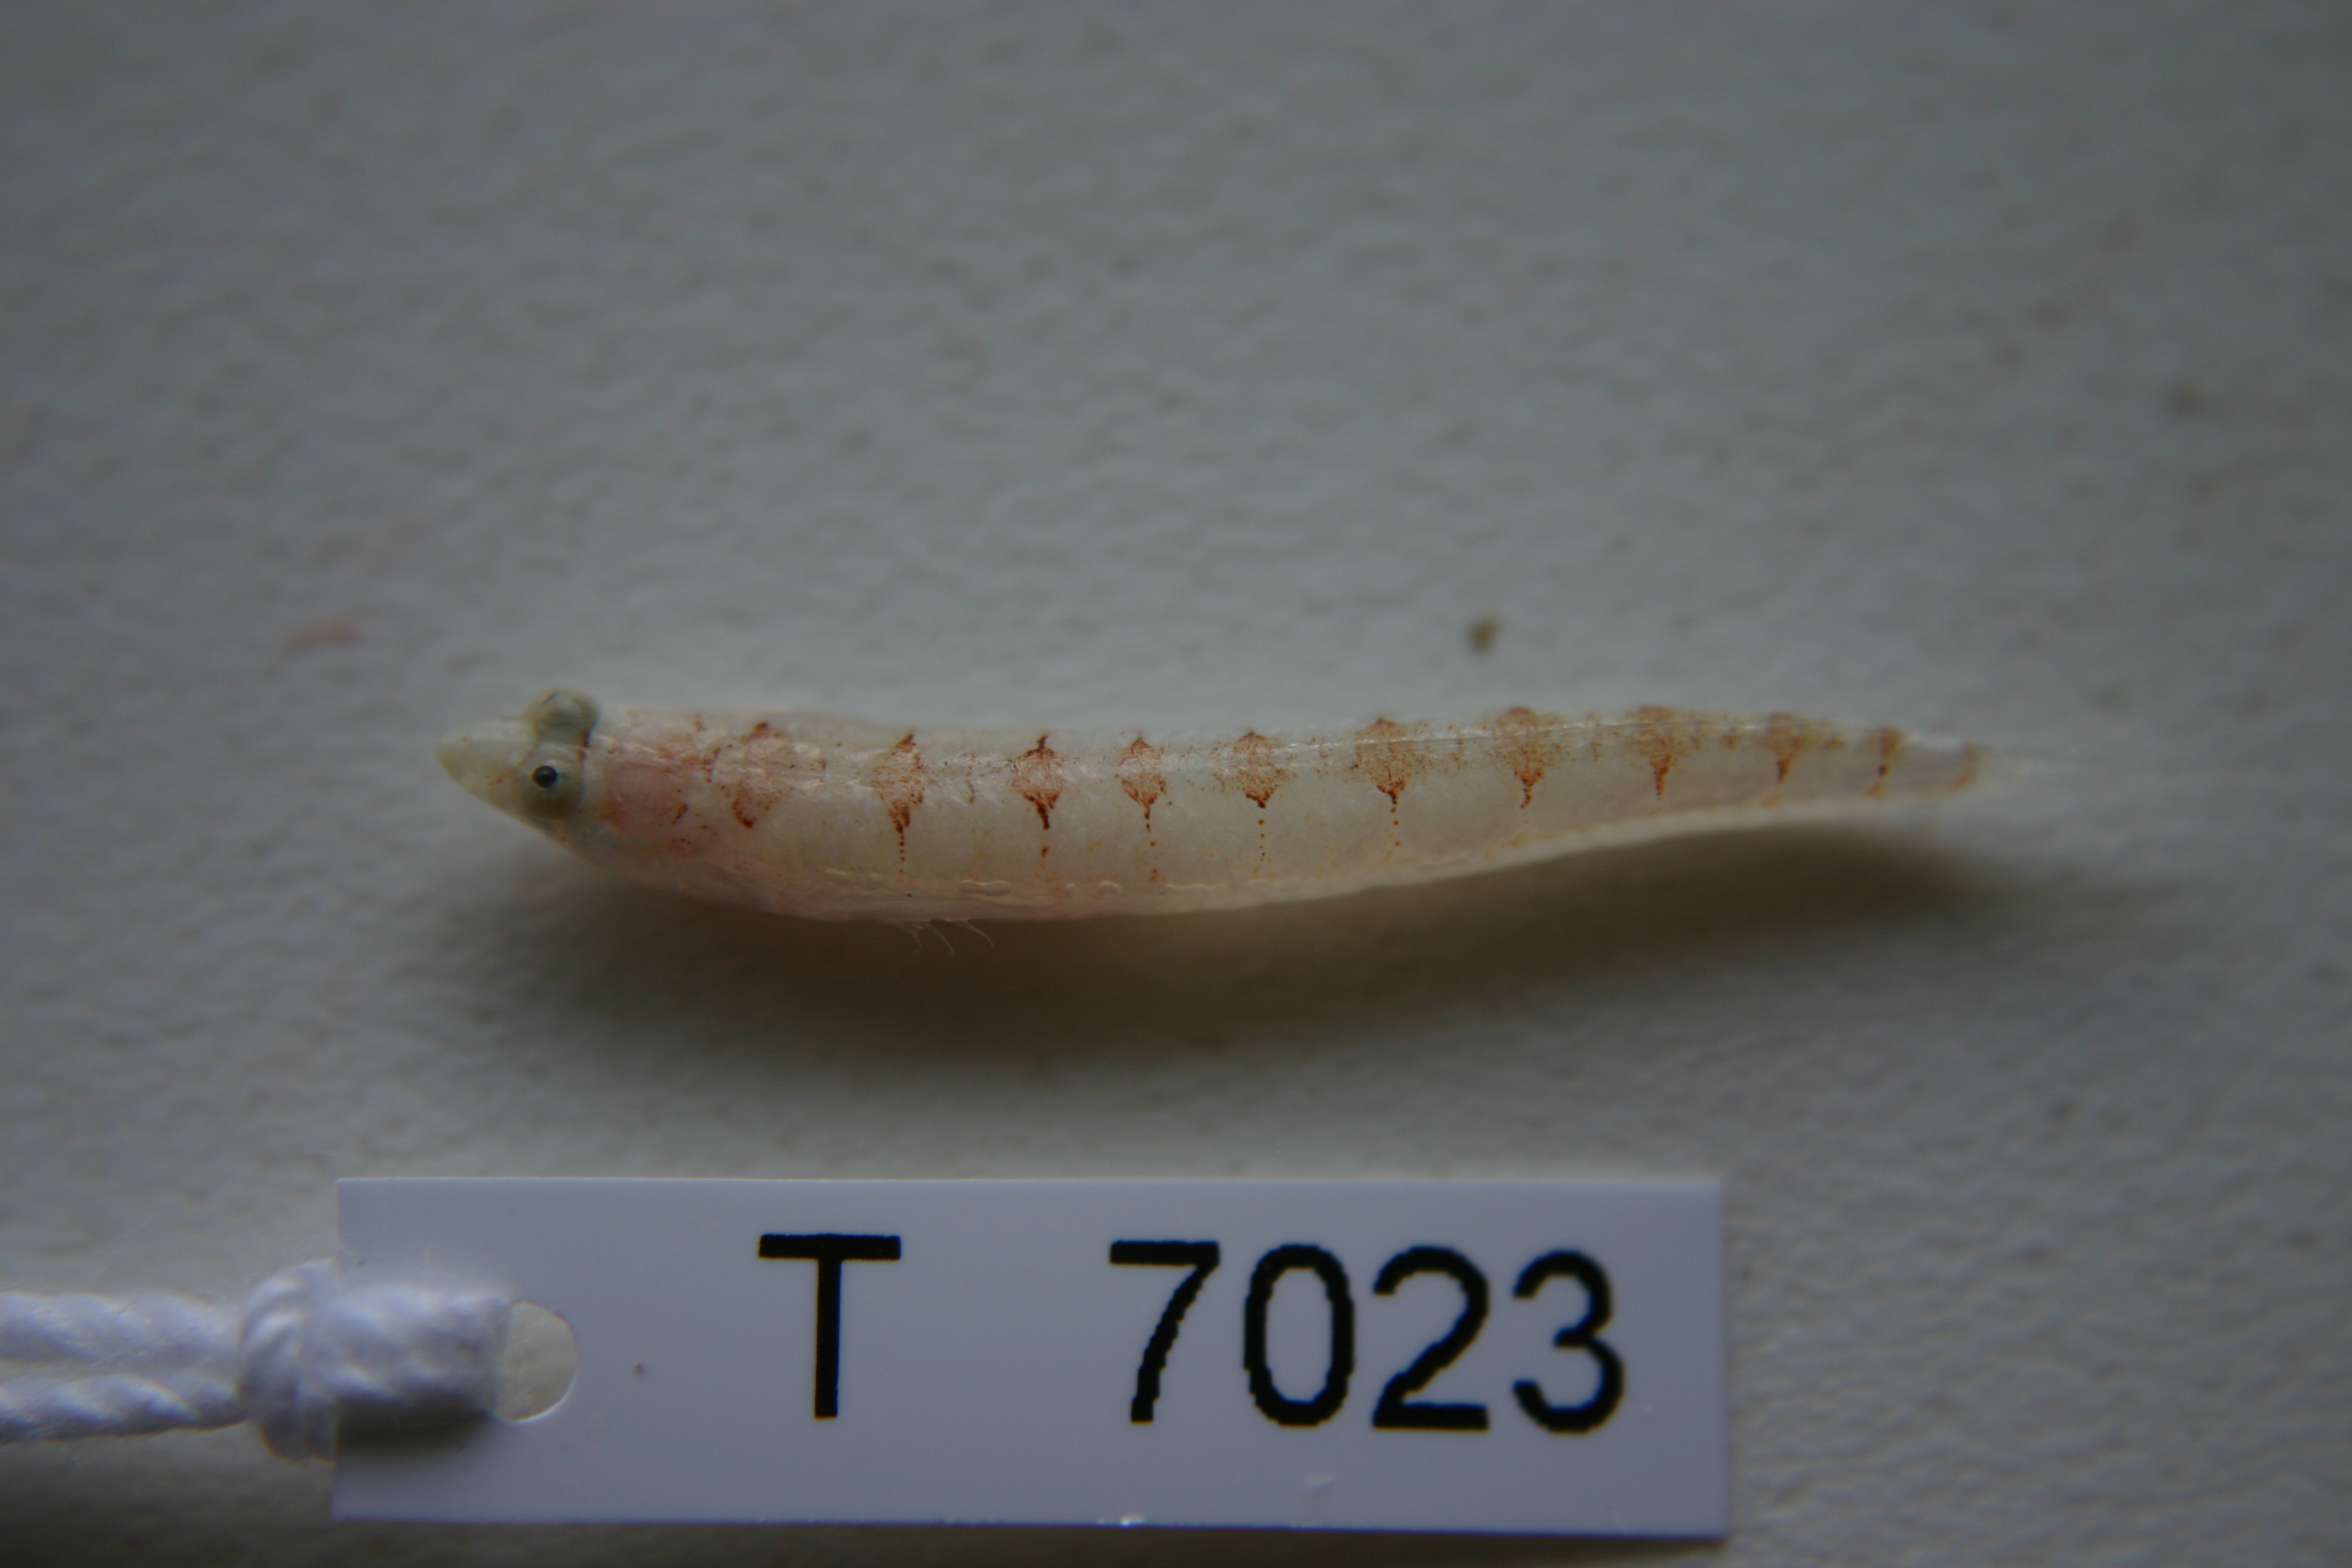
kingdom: Animalia
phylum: Chordata
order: Perciformes
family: Creediidae
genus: Limnichthys
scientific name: Limnichthys
